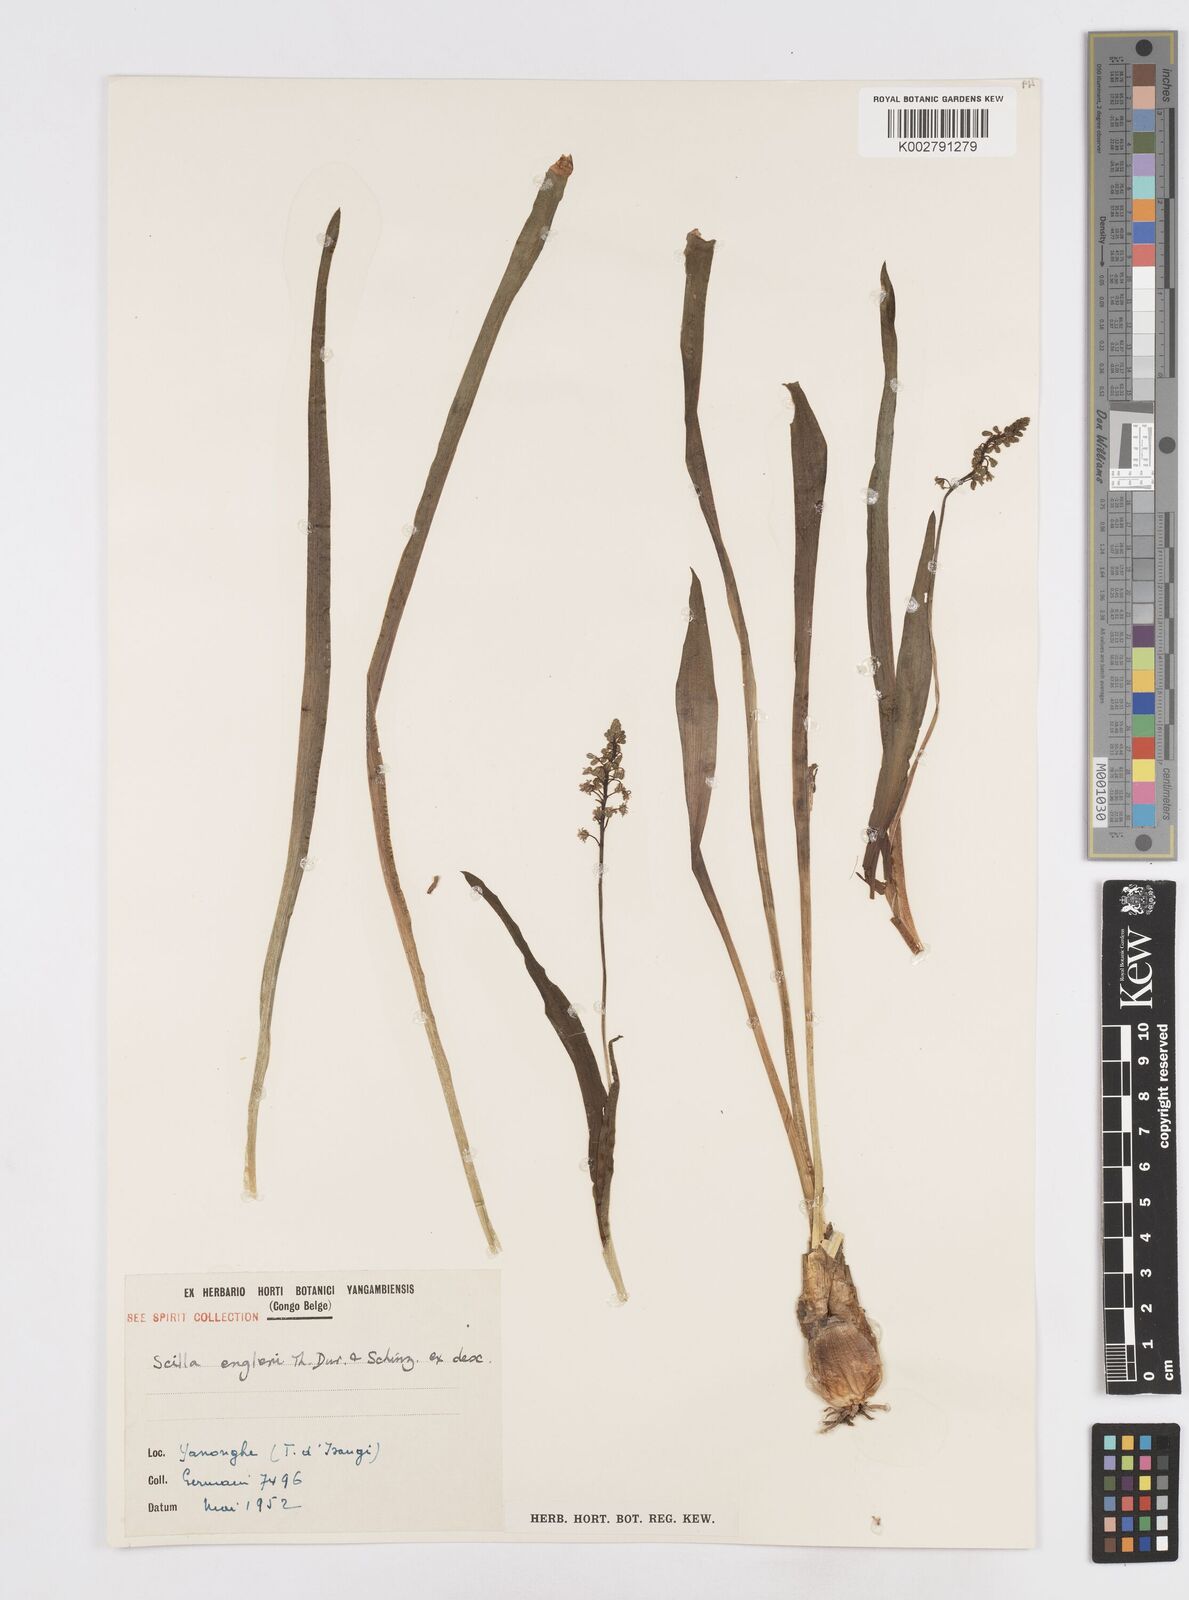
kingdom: Plantae
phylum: Tracheophyta
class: Liliopsida
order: Asparagales
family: Asparagaceae
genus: Scilla
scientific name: Scilla engleri
